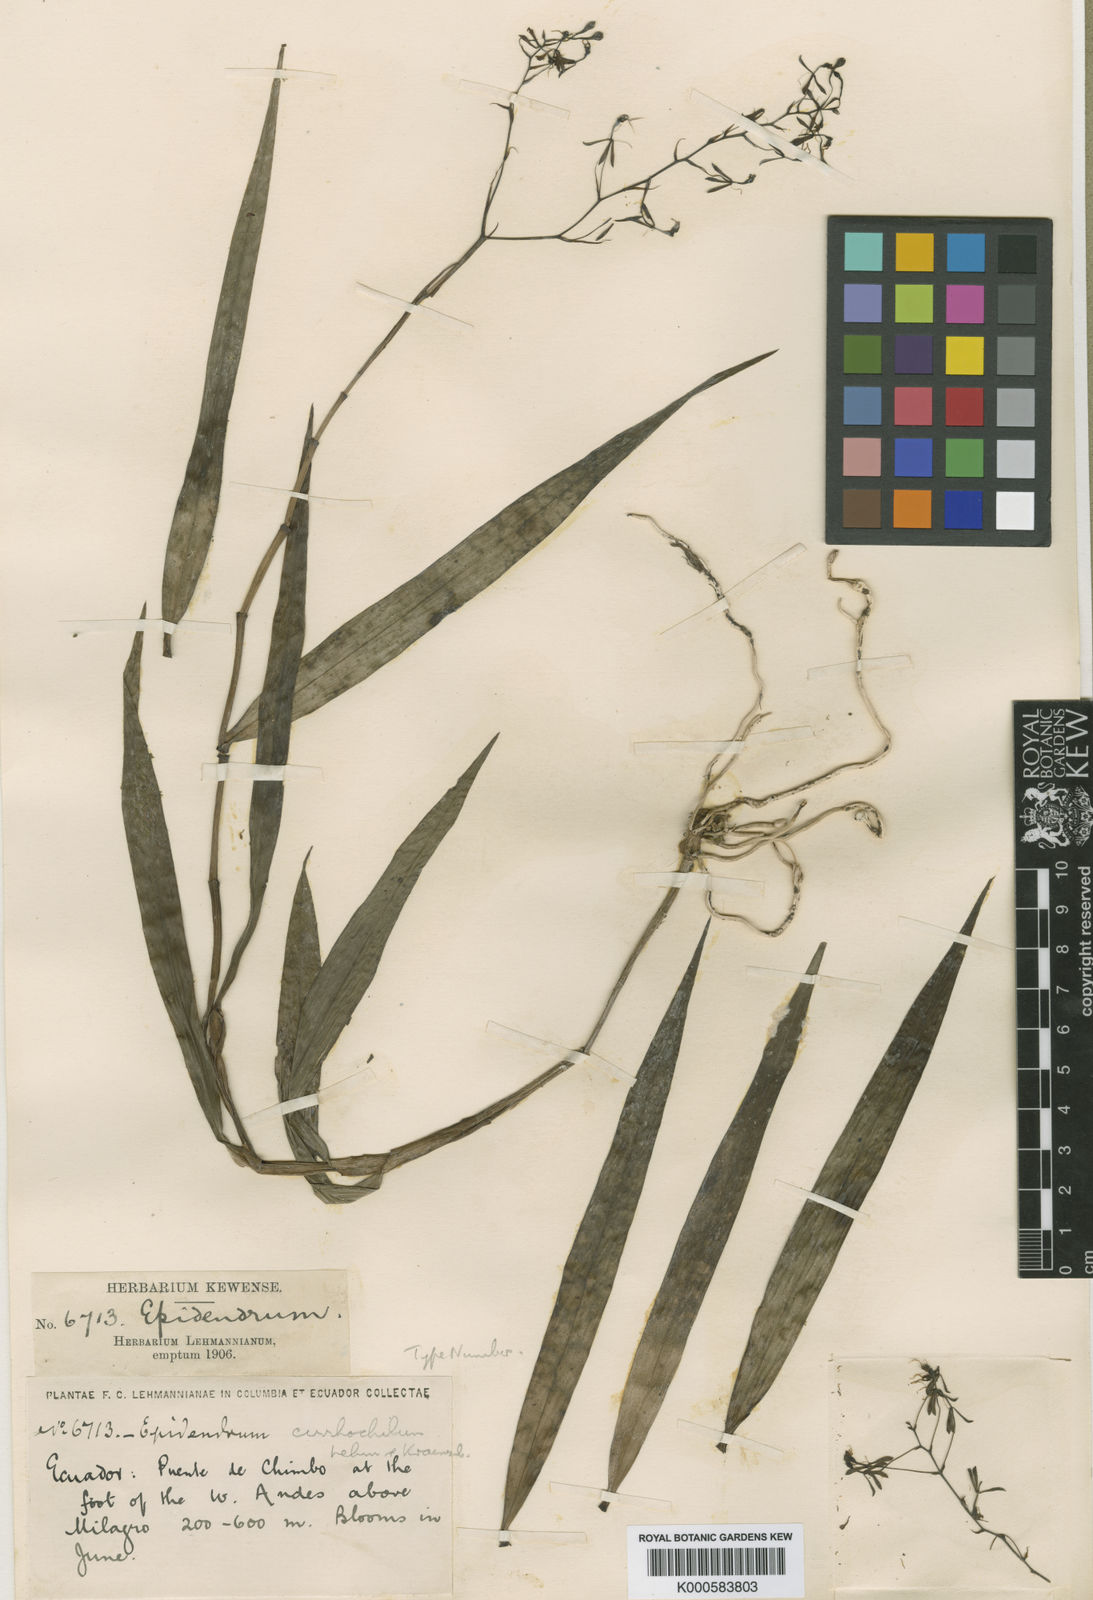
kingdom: Plantae
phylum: Tracheophyta
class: Liliopsida
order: Asparagales
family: Orchidaceae
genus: Epidendrum
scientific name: Epidendrum cirrhochilum
